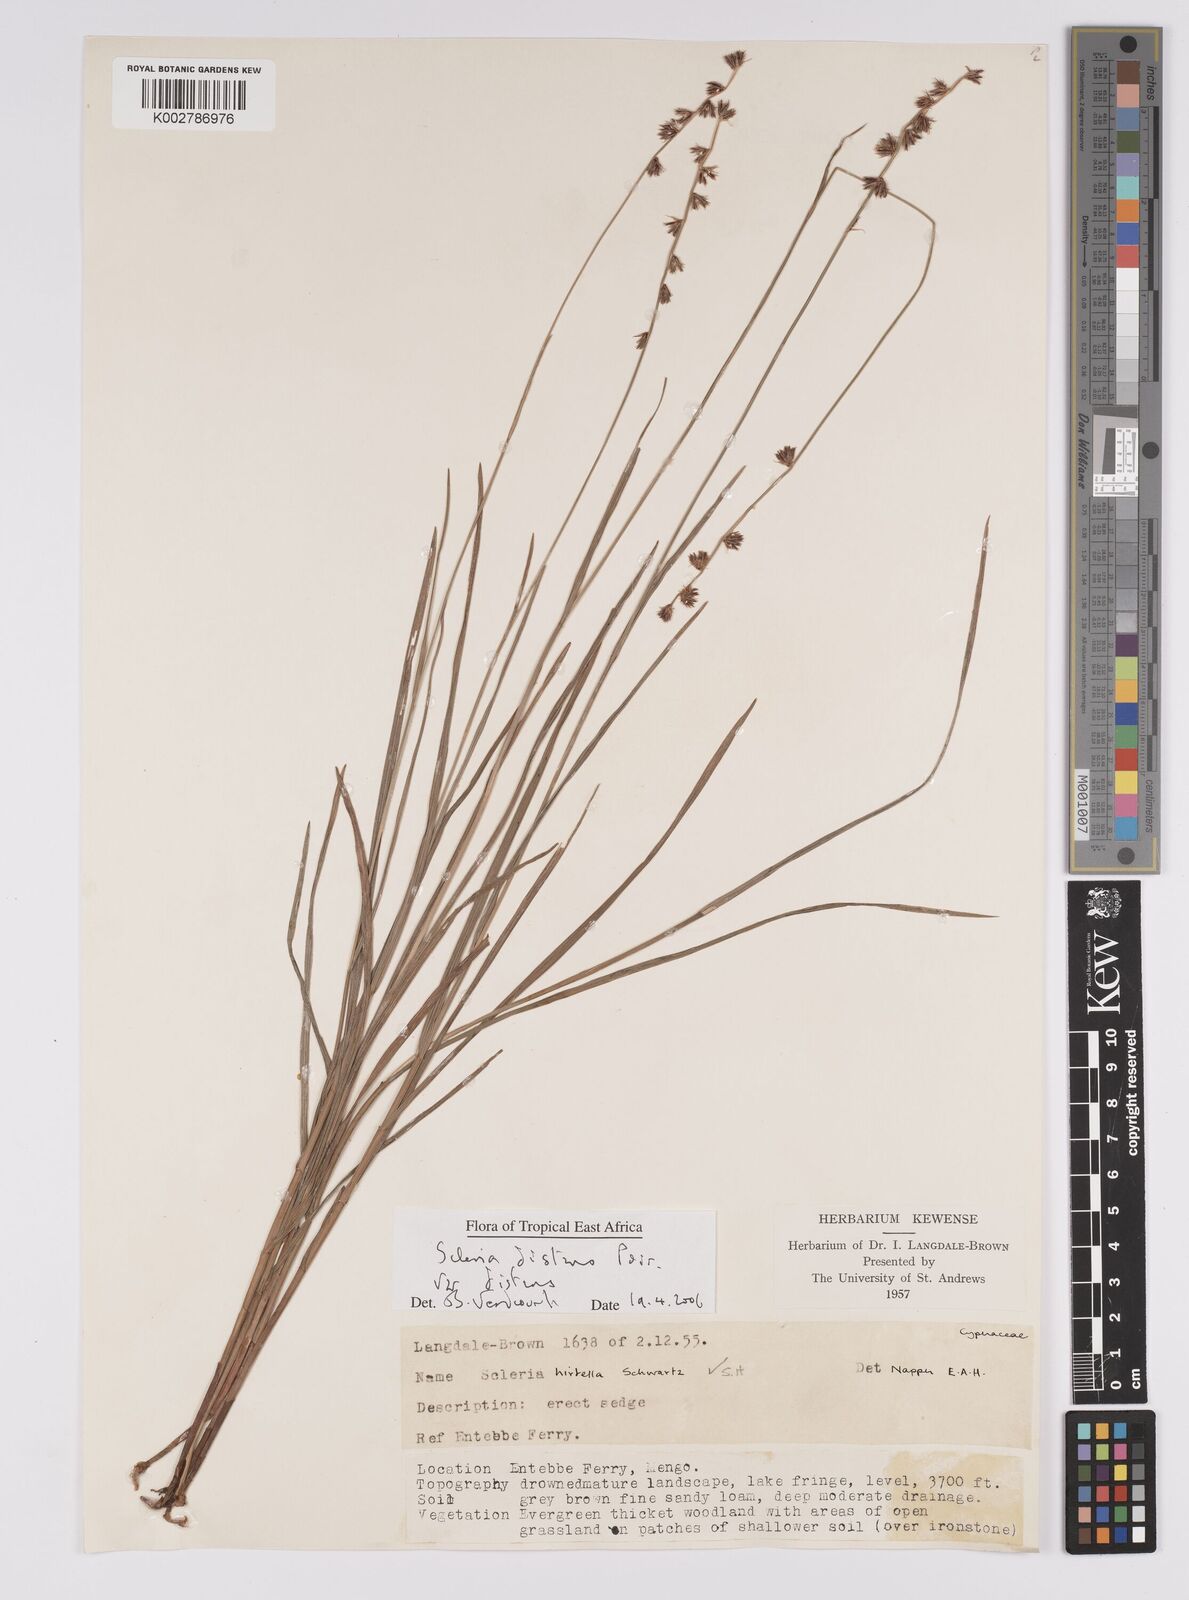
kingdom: Plantae
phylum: Tracheophyta
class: Liliopsida
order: Poales
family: Cyperaceae
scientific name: Cyperaceae
